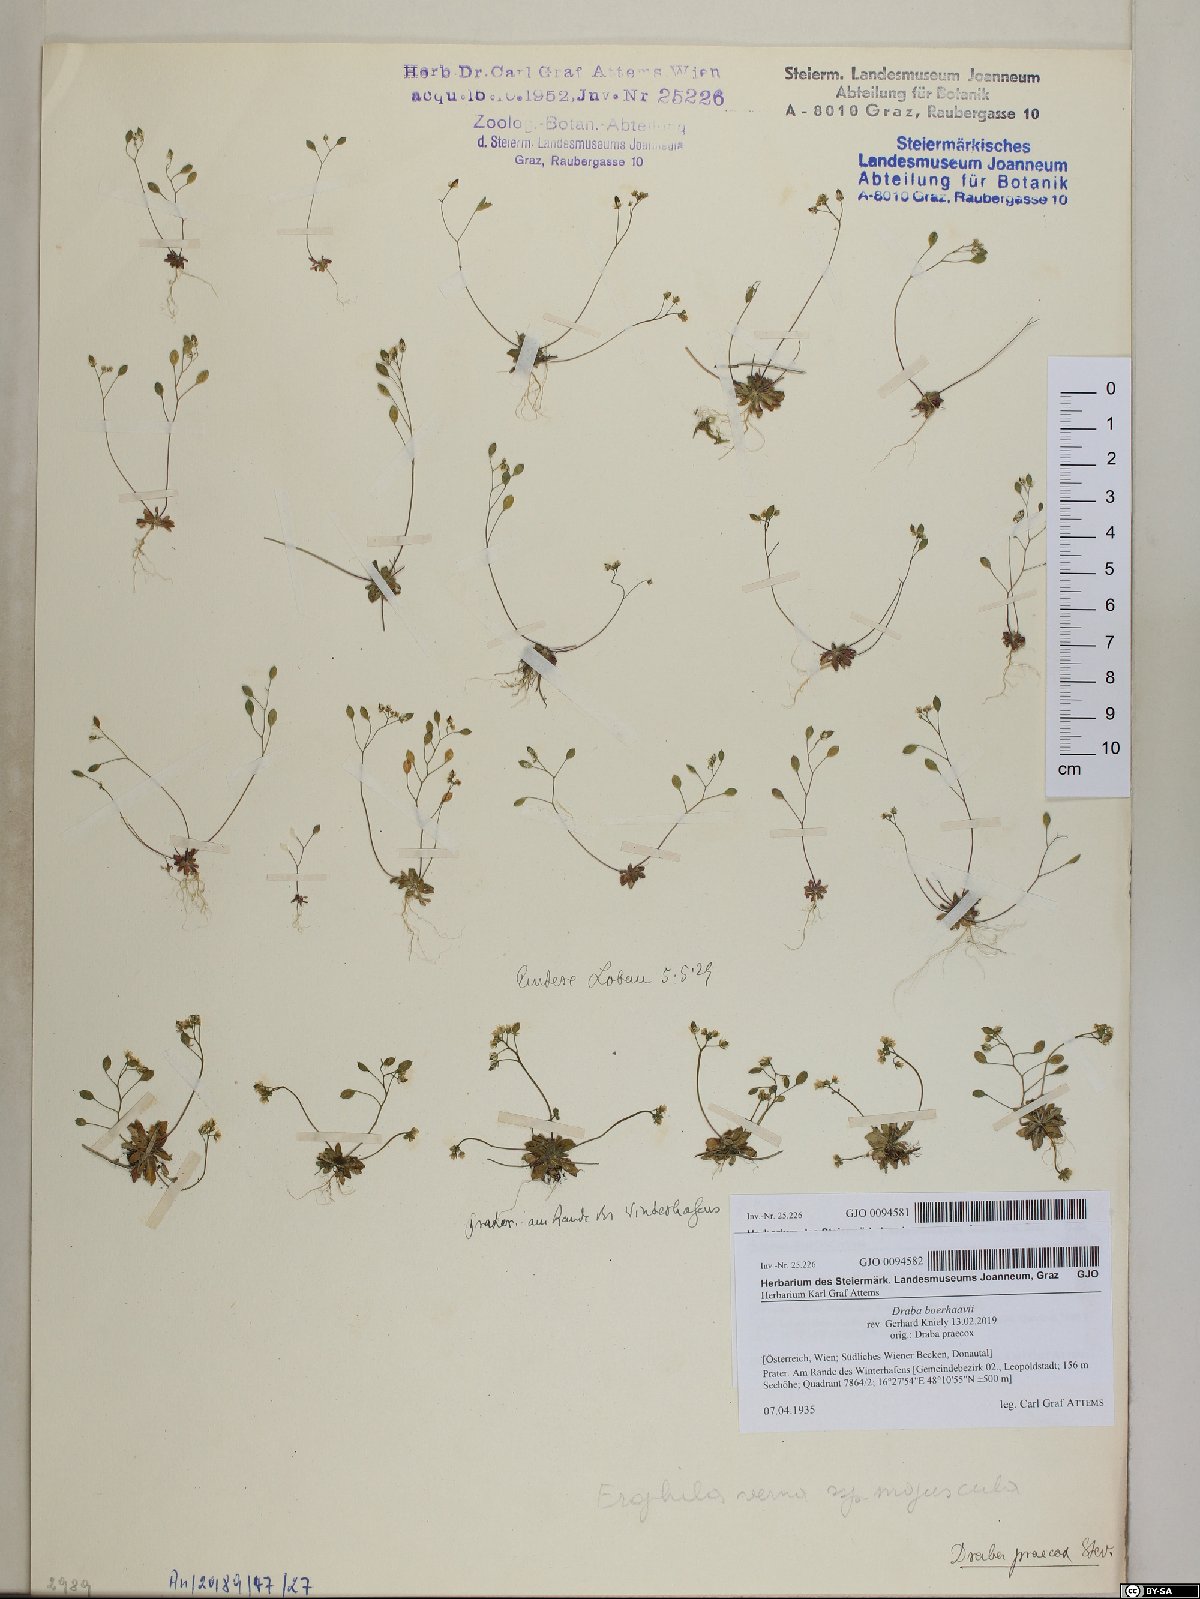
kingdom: Plantae
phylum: Tracheophyta
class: Magnoliopsida
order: Brassicales
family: Brassicaceae
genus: Draba
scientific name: Draba verna
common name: Spring draba
